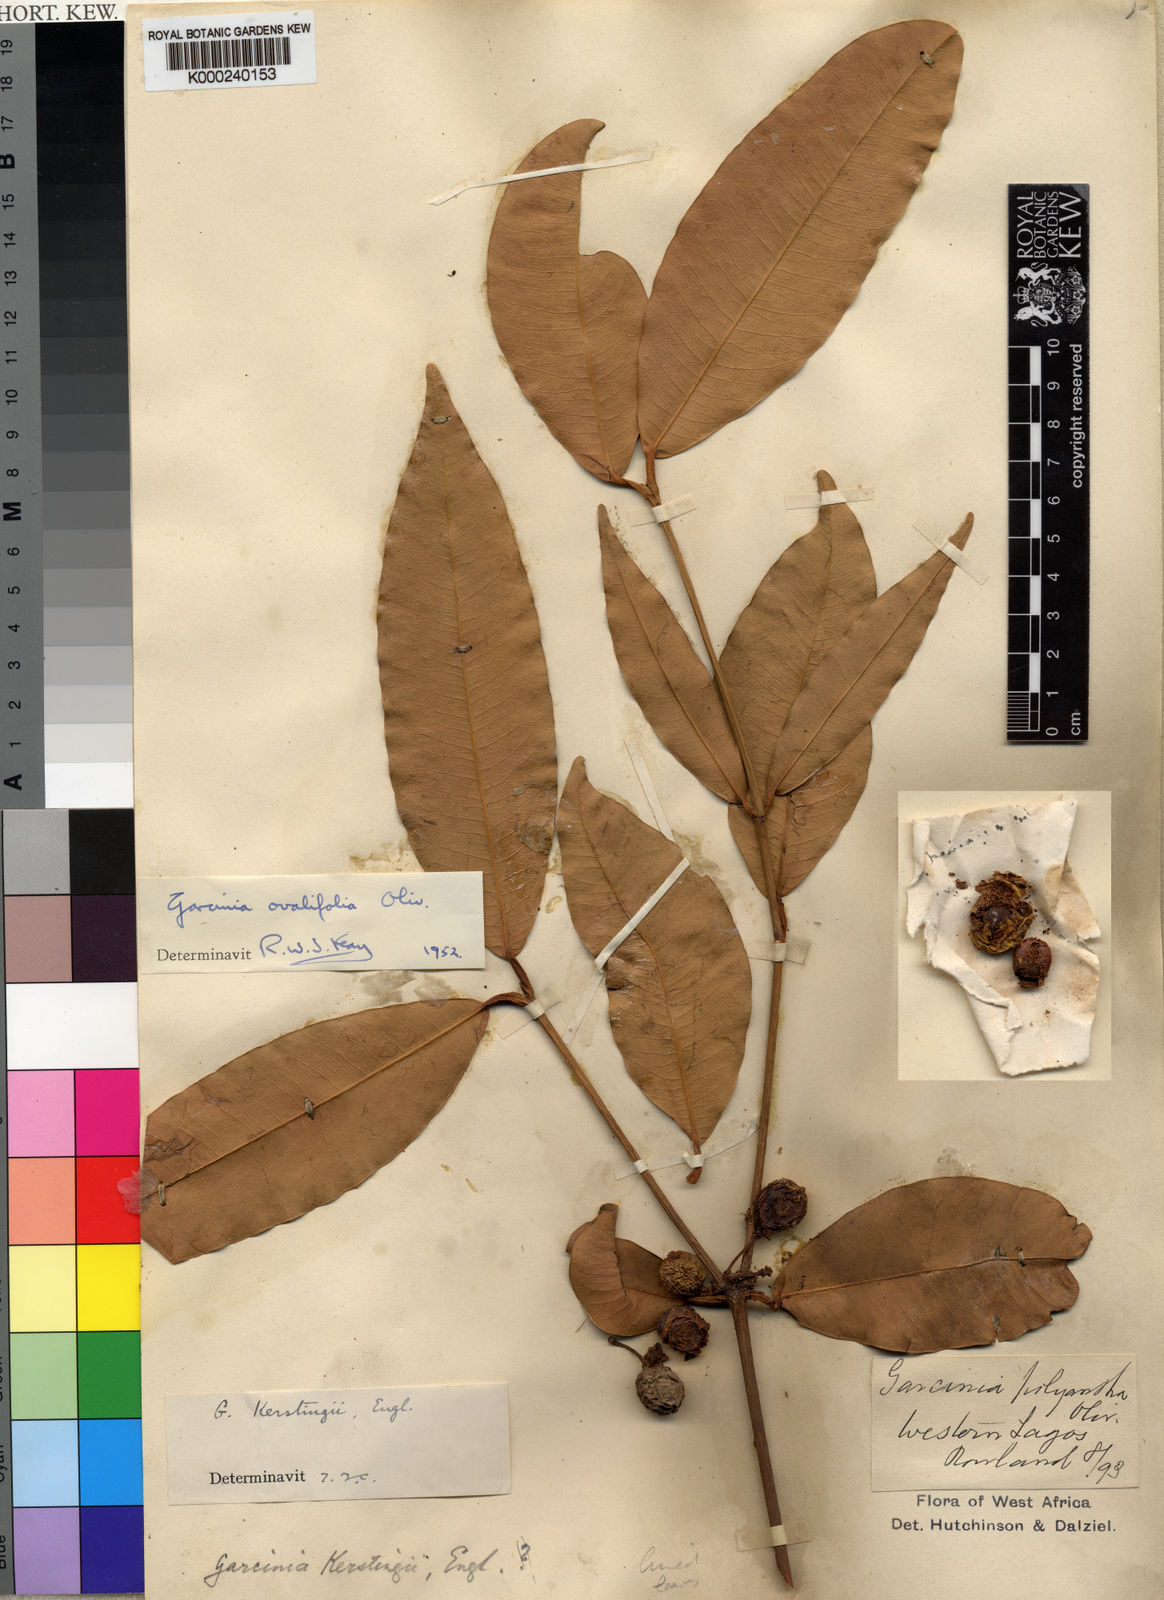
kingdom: Plantae
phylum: Tracheophyta
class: Magnoliopsida
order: Malpighiales
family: Clusiaceae
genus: Garcinia
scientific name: Garcinia ovalifolia
